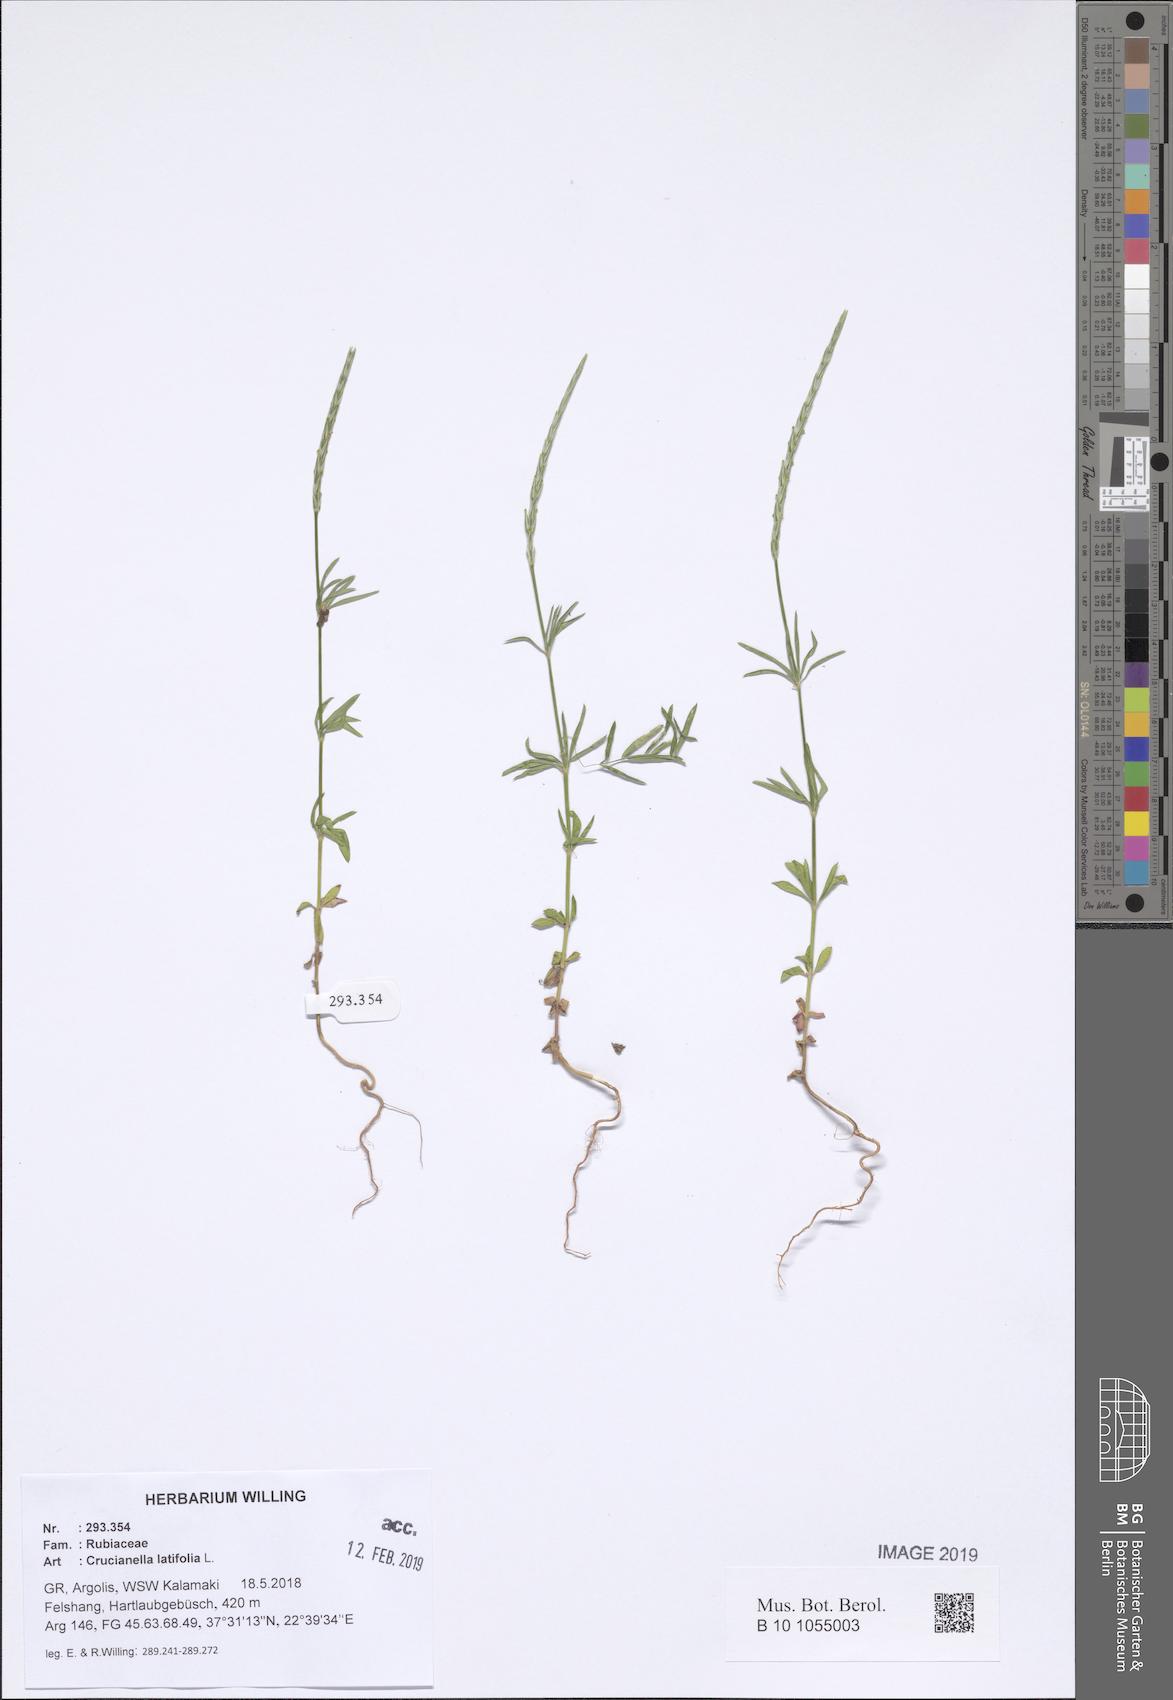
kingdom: Plantae
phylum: Tracheophyta
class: Magnoliopsida
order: Gentianales
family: Rubiaceae
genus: Crucianella
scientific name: Crucianella latifolia
